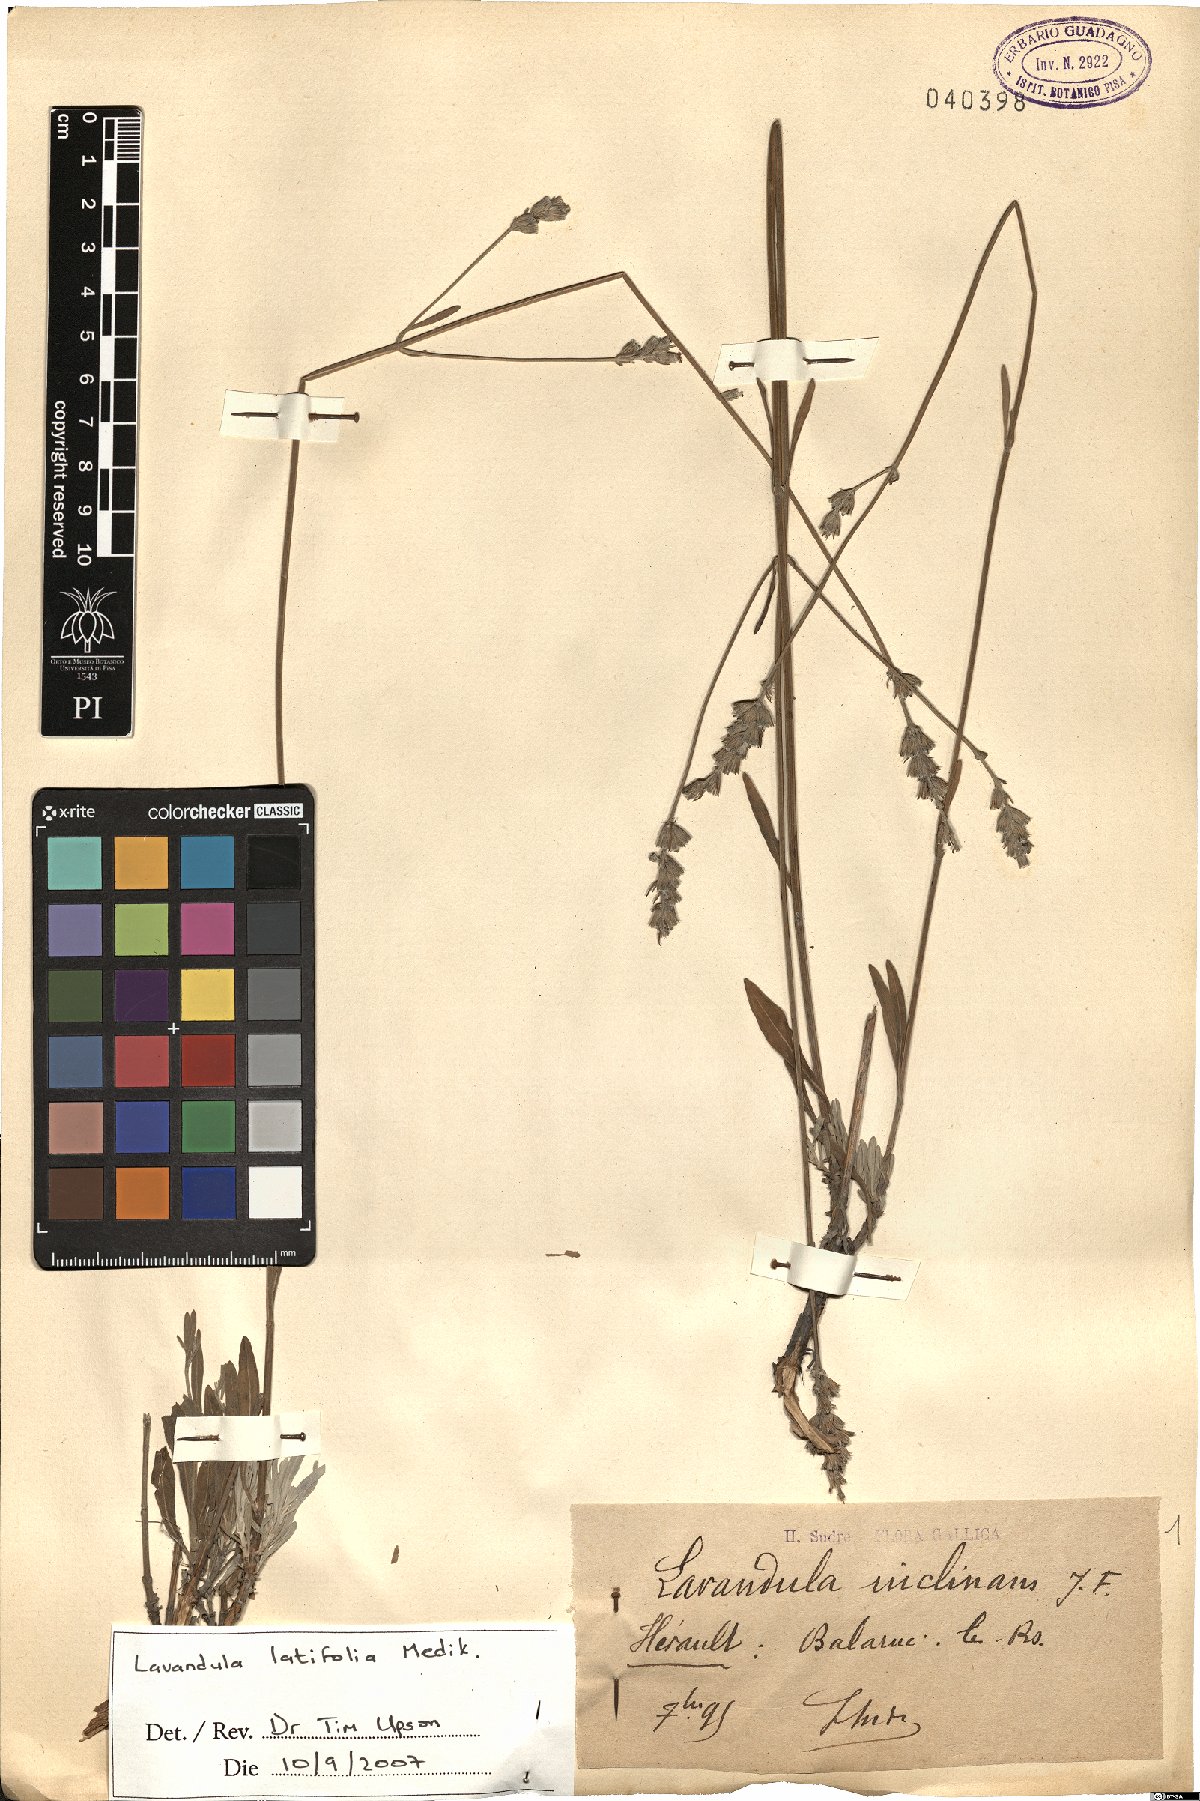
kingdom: Plantae
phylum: Tracheophyta
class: Magnoliopsida
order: Lamiales
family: Lamiaceae
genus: Lavandula
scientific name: Lavandula latifolia
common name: Spike lavendar
